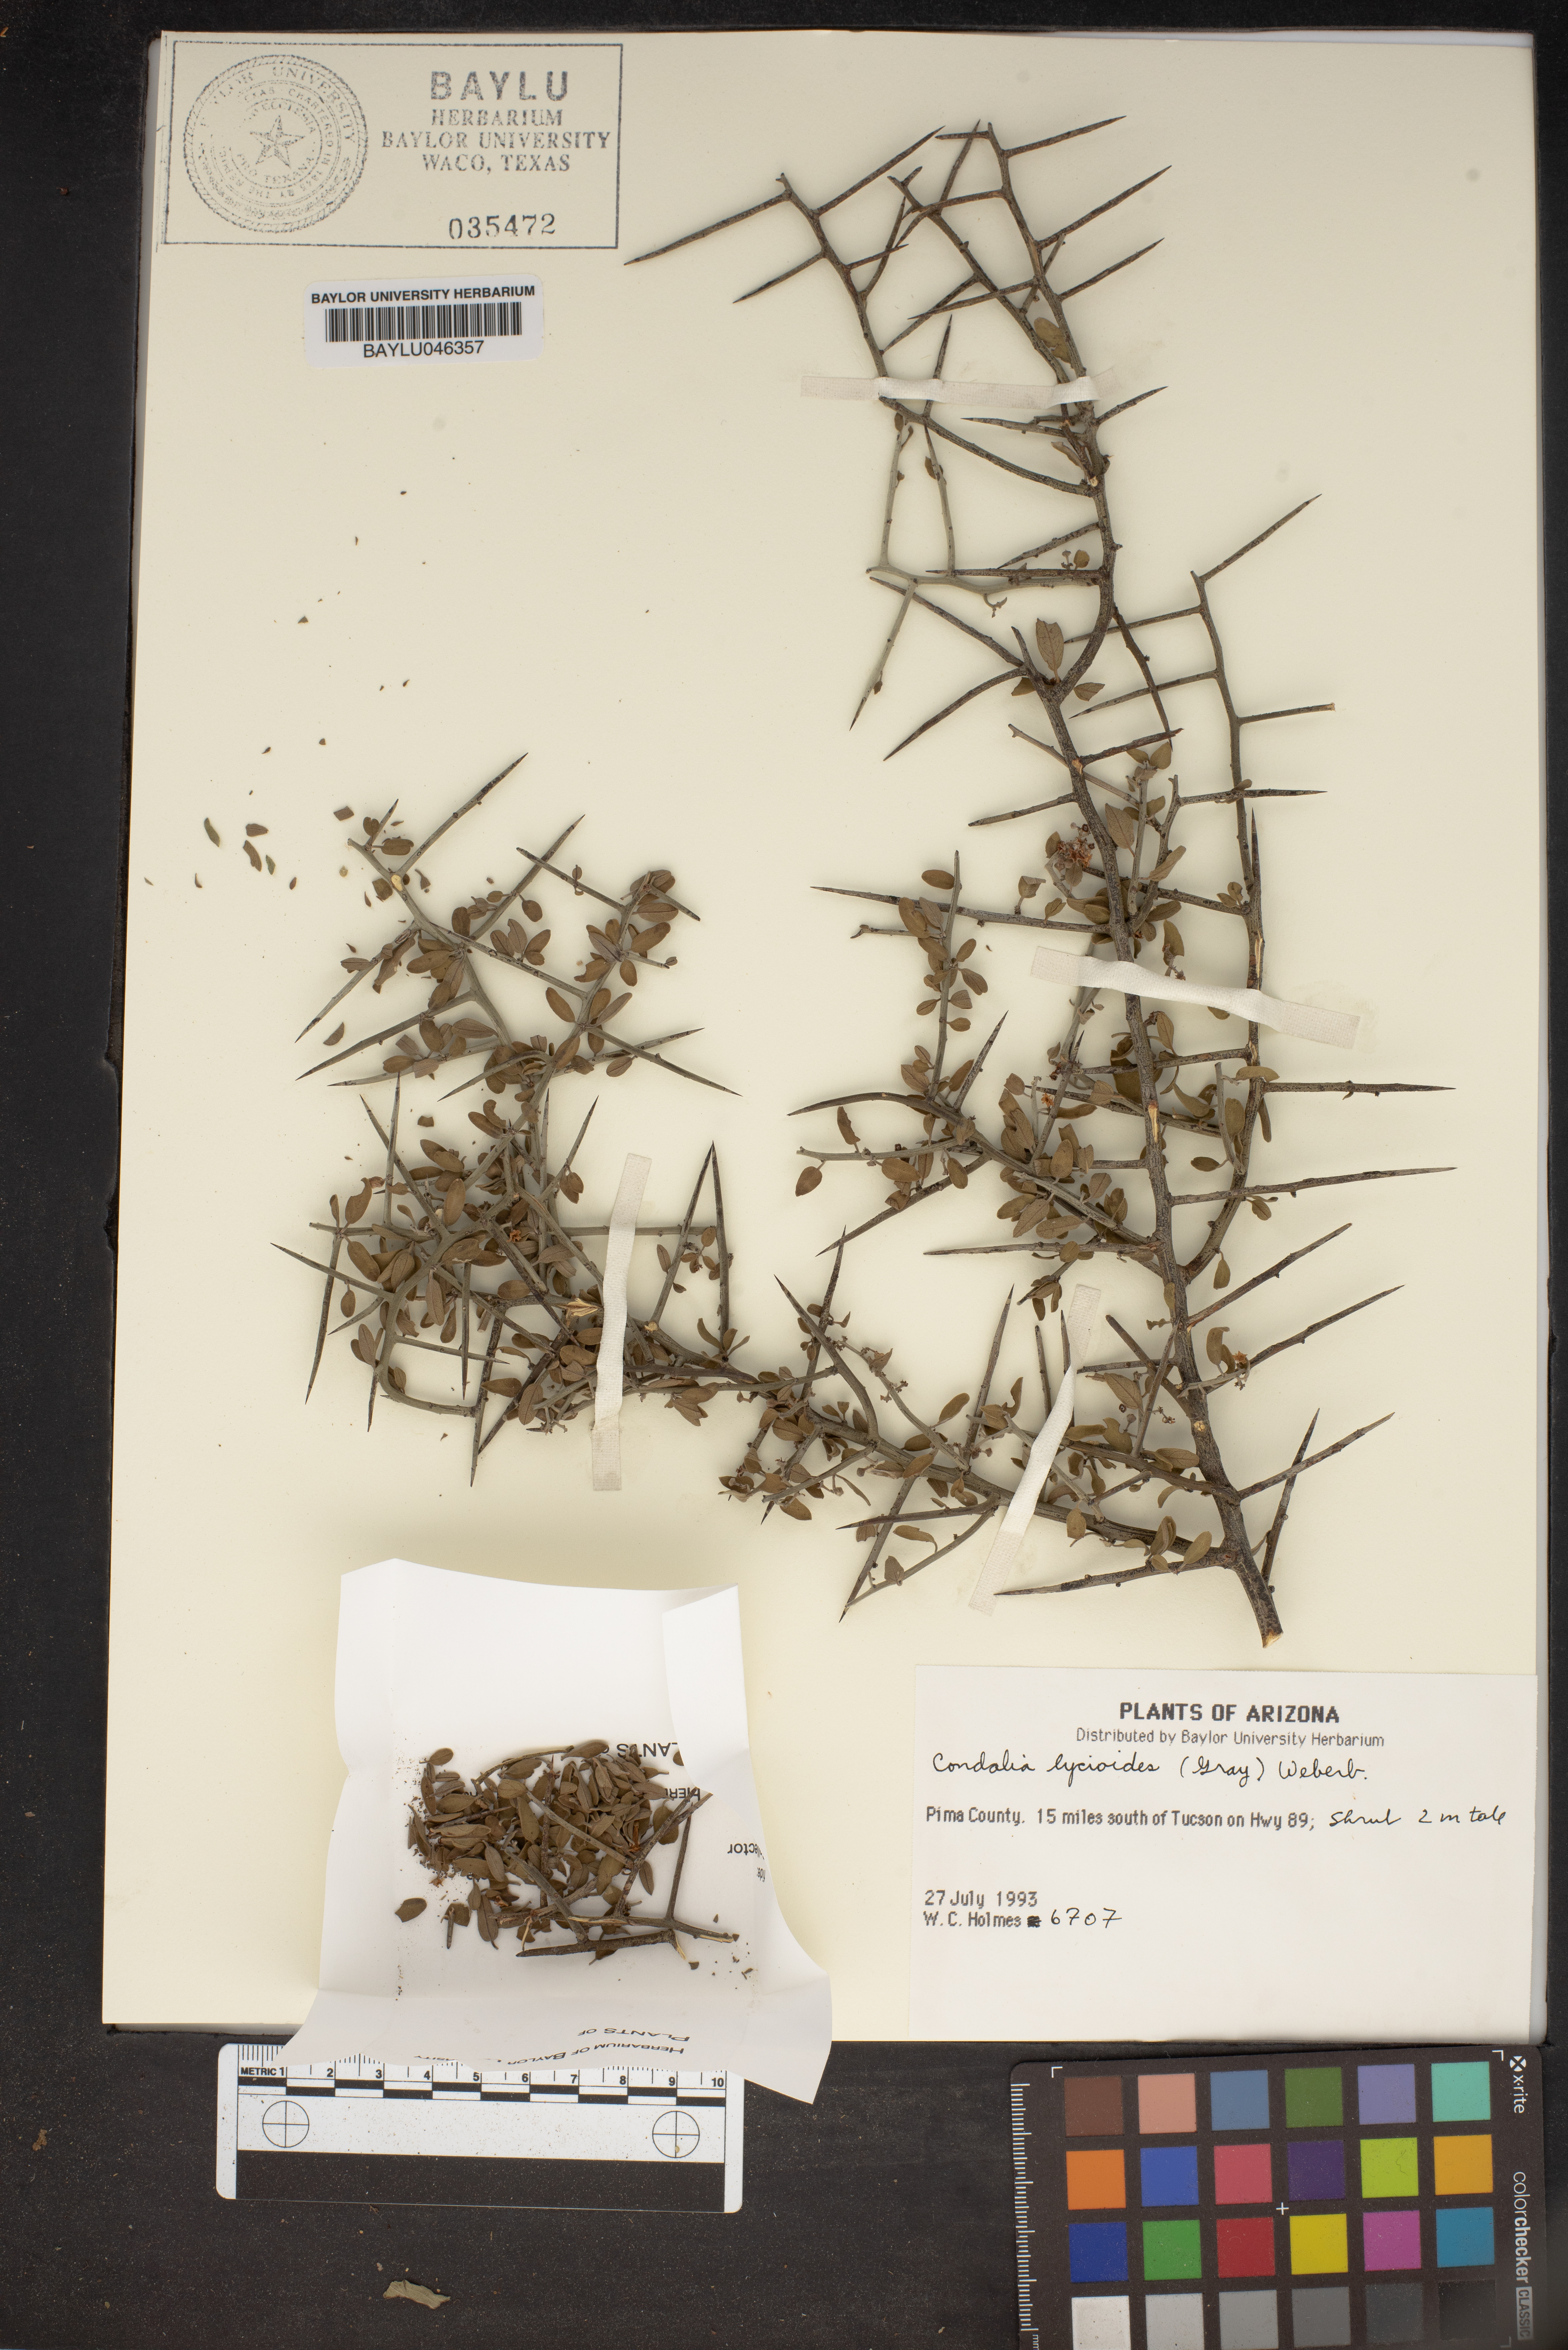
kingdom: Plantae
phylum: Tracheophyta
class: Magnoliopsida
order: Rosales
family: Rhamnaceae
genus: Sarcomphalus
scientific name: Sarcomphalus obtusifolius
